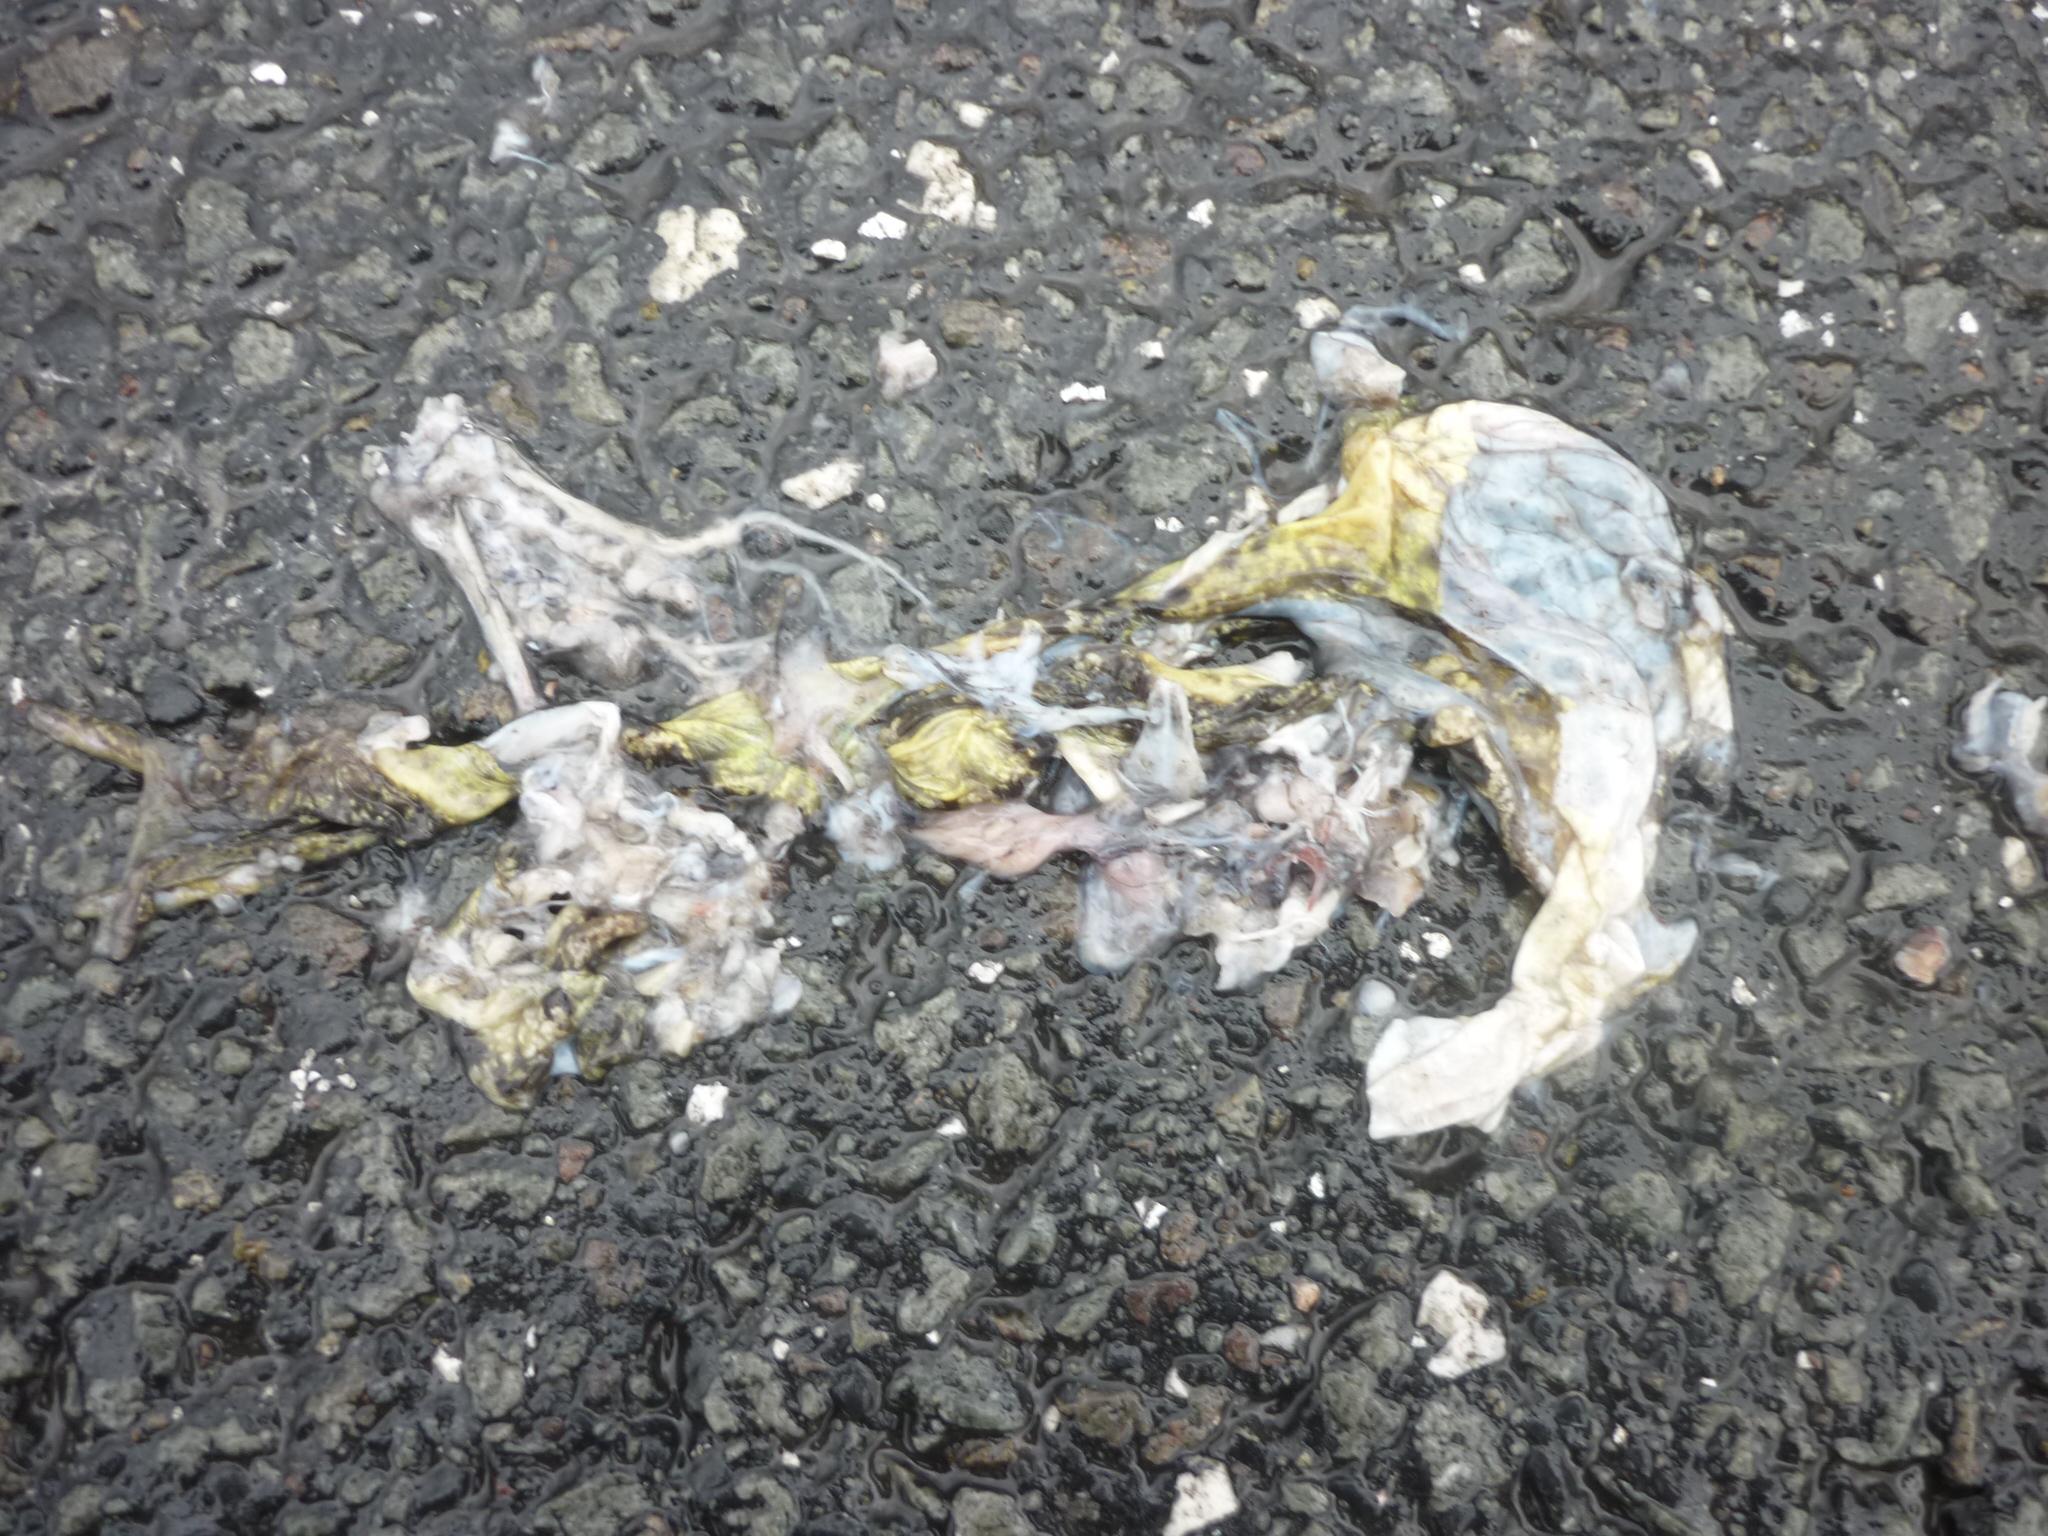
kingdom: Animalia
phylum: Chordata
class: Amphibia
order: Anura
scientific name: Anura
